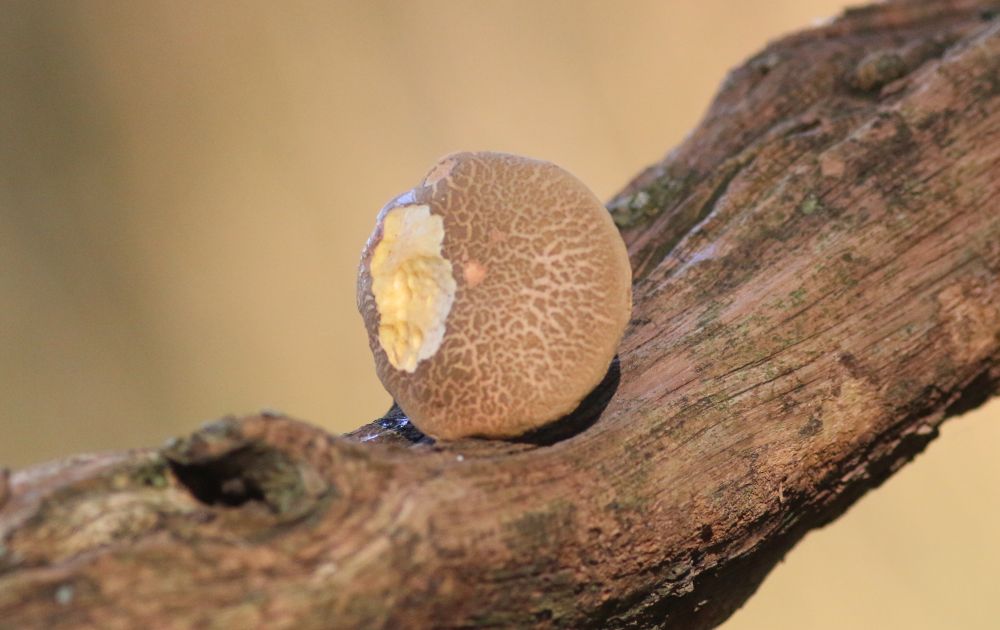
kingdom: Fungi
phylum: Basidiomycota
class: Agaricomycetes
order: Boletales
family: Boletaceae
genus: Xerocomellus
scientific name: Xerocomellus
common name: dværgrørhat
